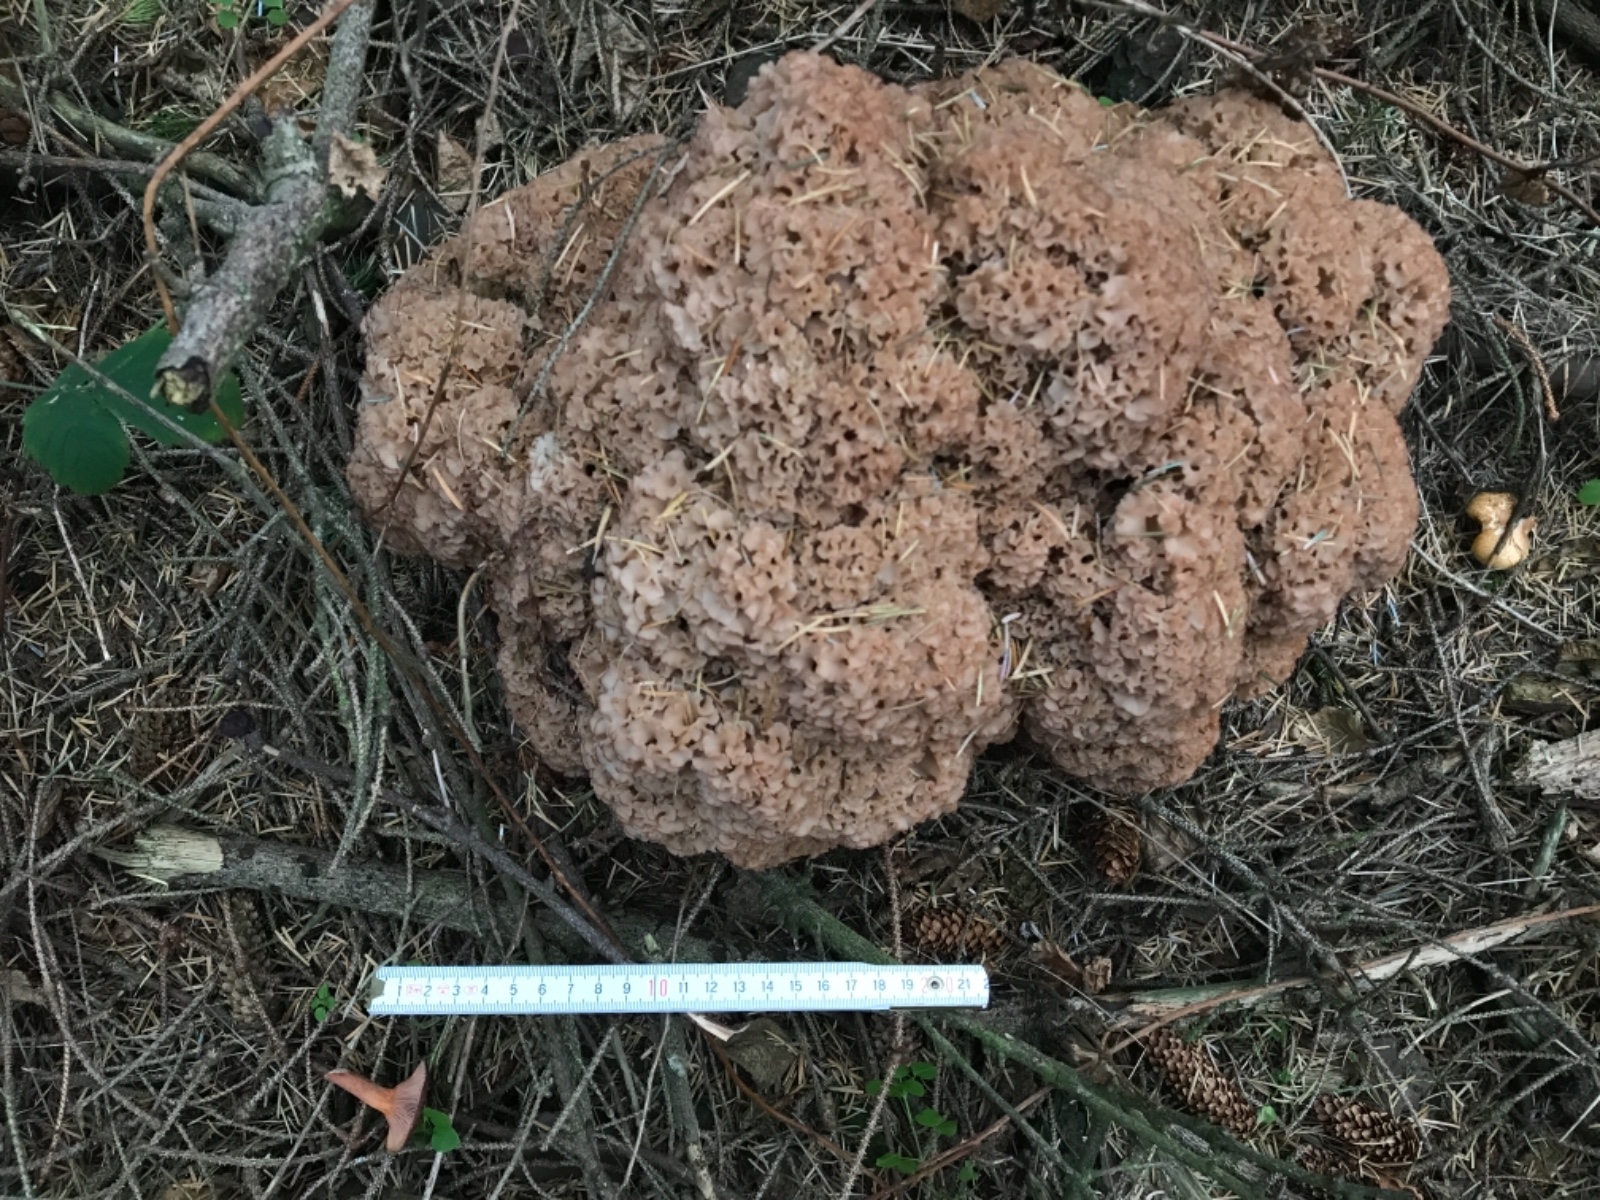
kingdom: Fungi
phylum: Basidiomycota
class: Agaricomycetes
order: Polyporales
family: Sparassidaceae
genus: Sparassis
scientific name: Sparassis crispa
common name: kruset blomkålssvamp
